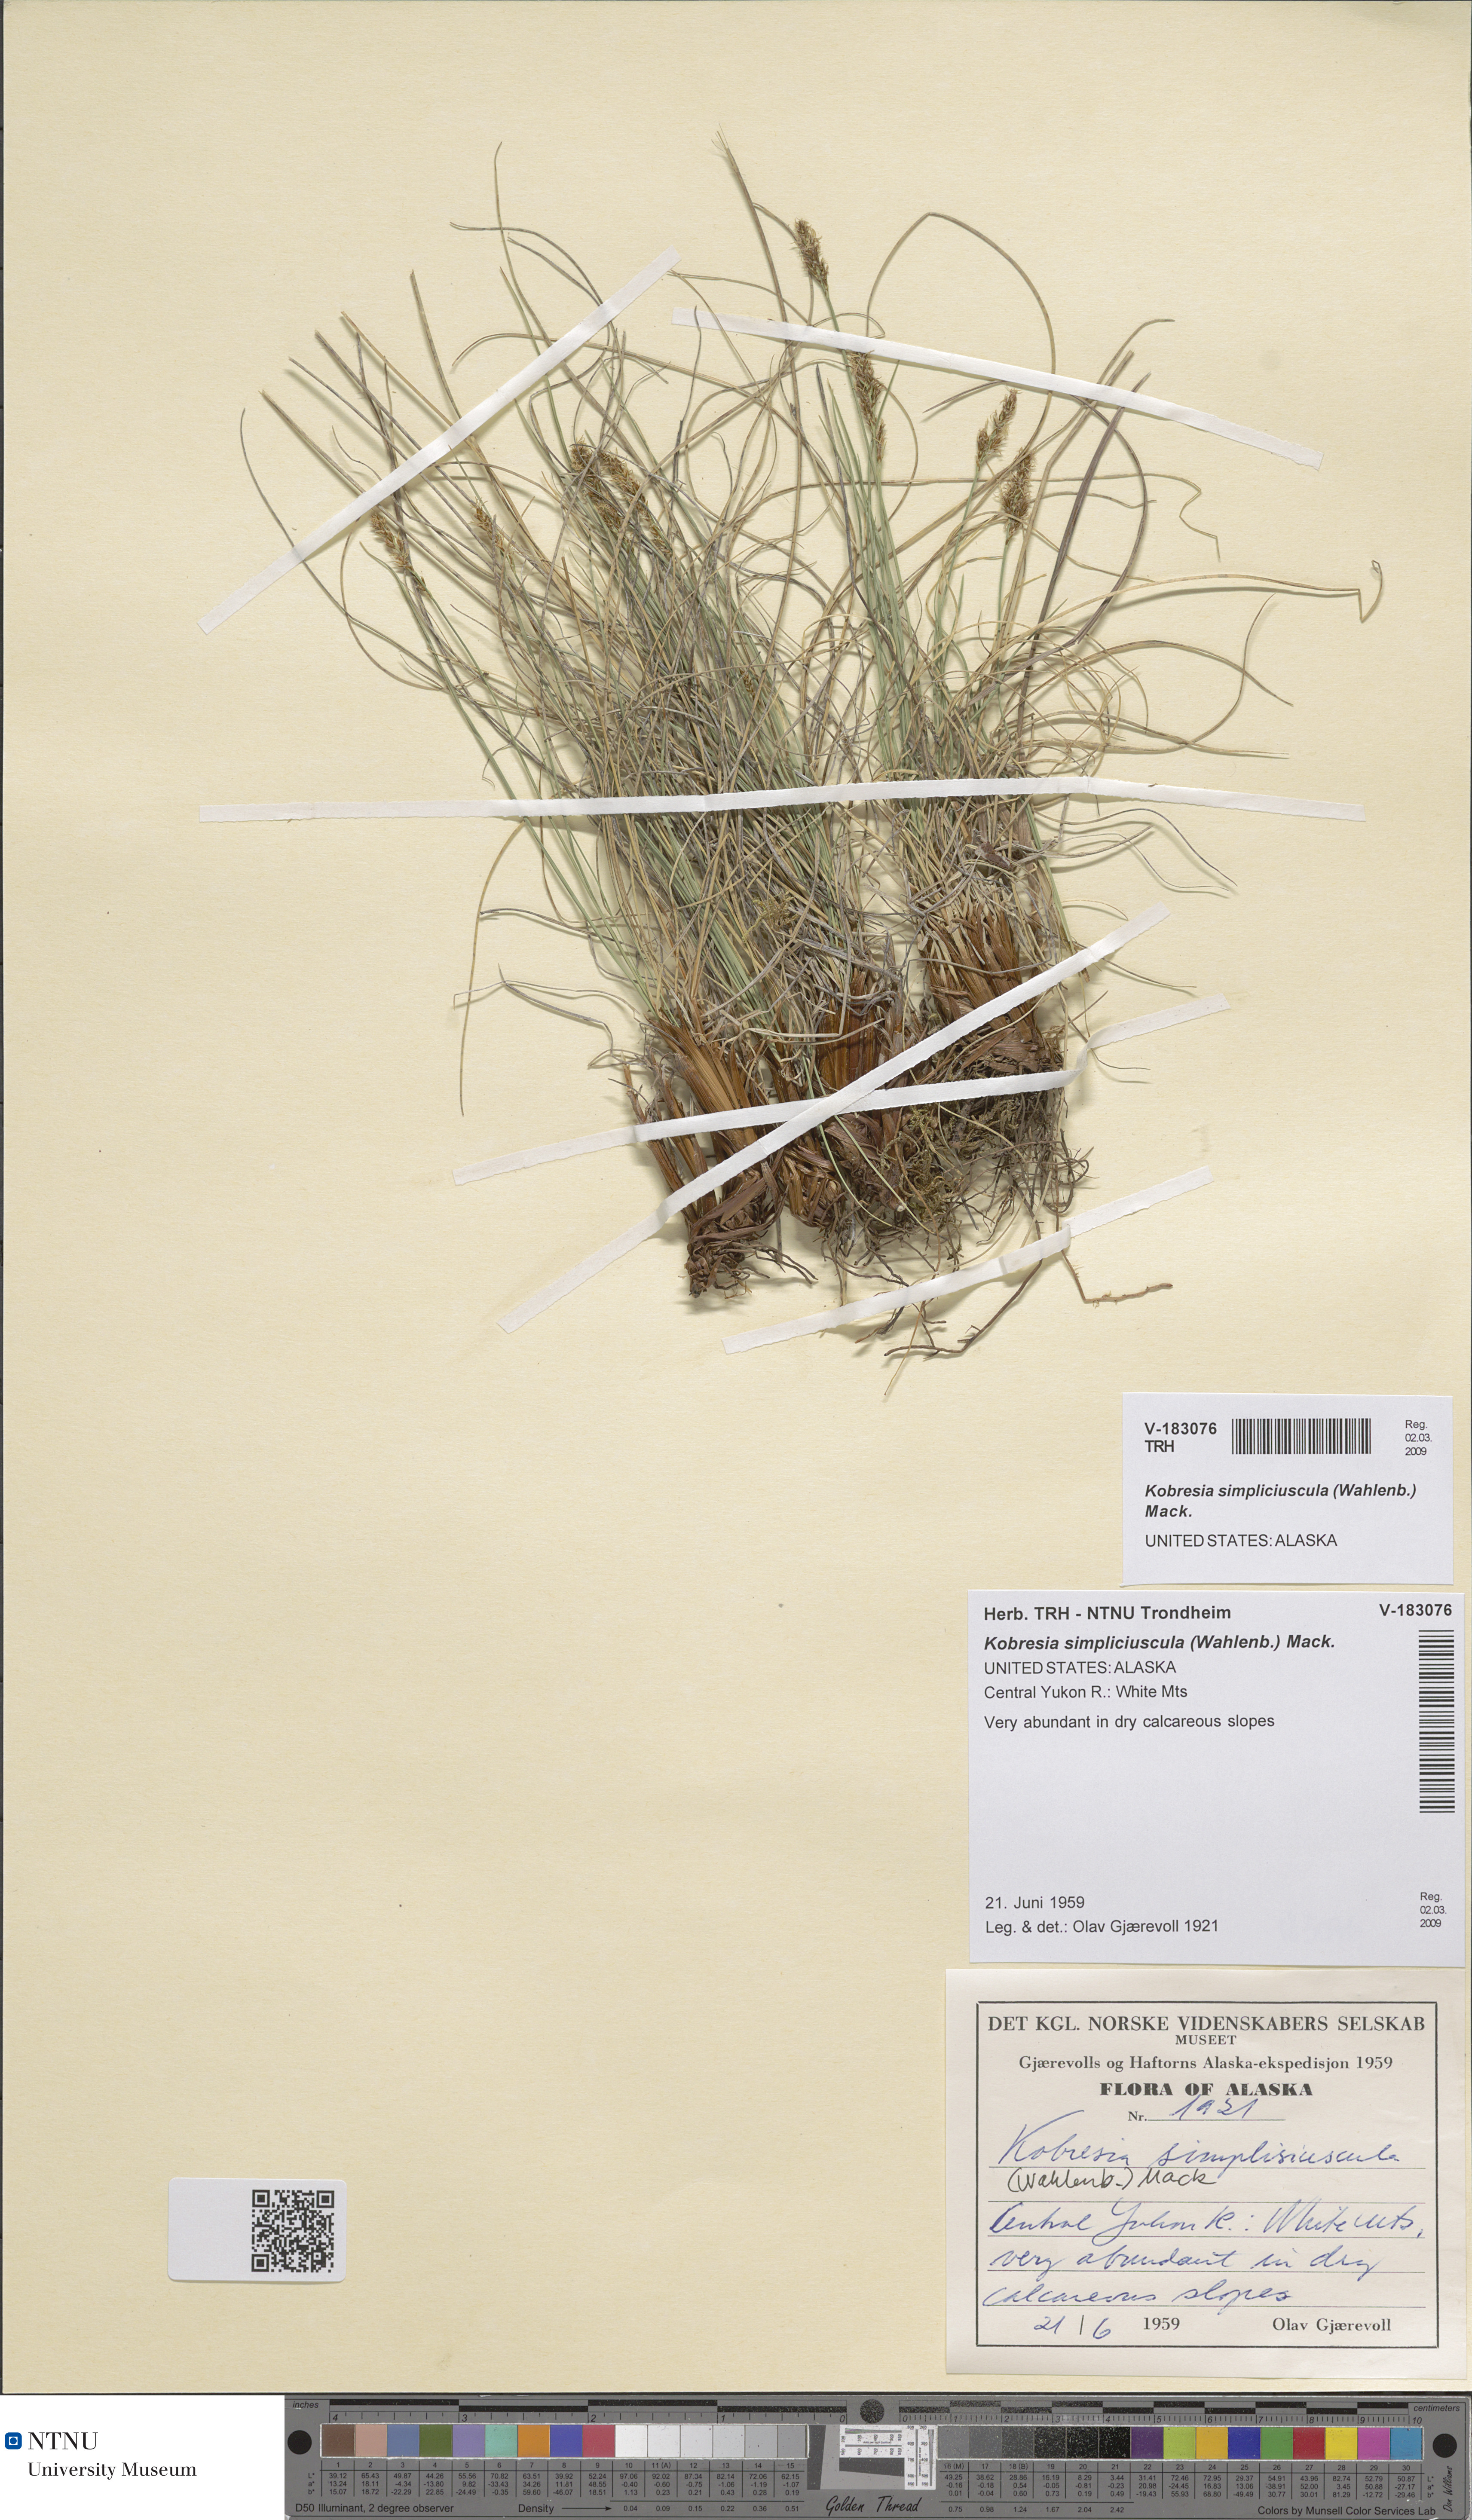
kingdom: Plantae
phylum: Tracheophyta
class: Liliopsida
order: Poales
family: Cyperaceae
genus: Carex
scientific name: Carex simpliciuscula
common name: Simple bog sedge
